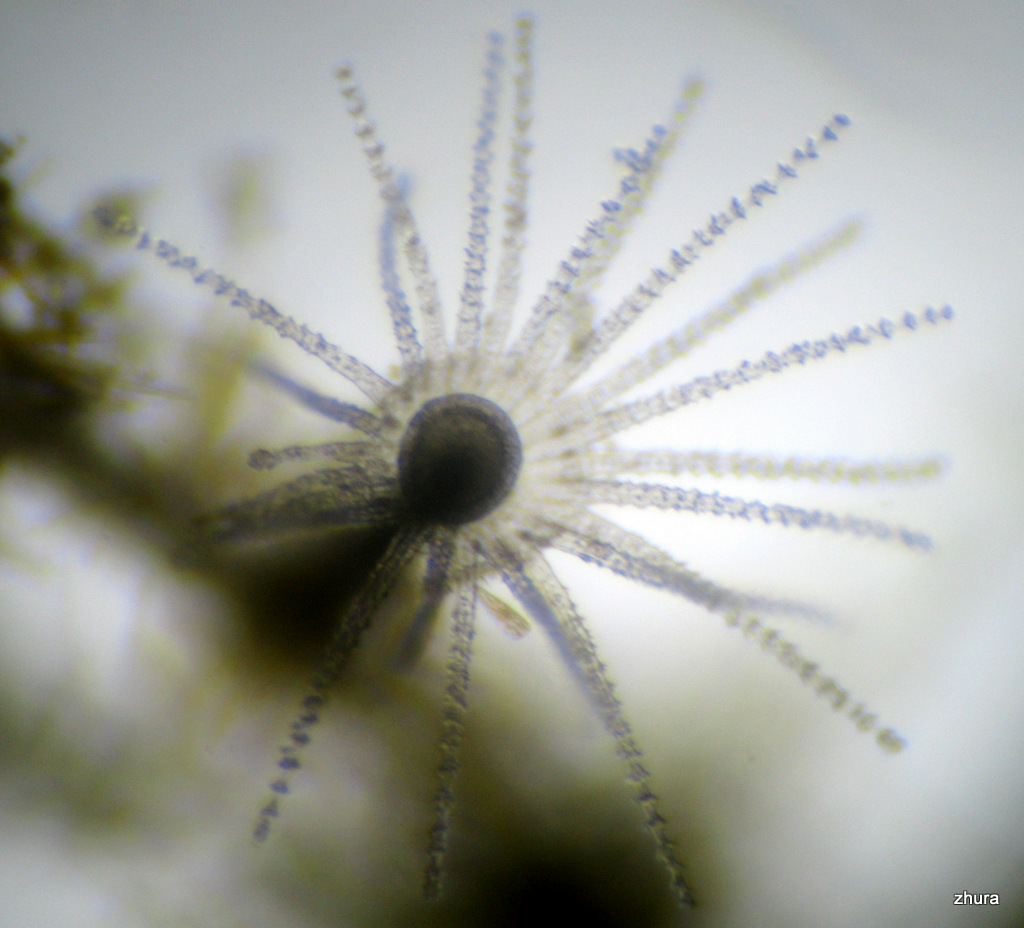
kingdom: Animalia
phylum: Cnidaria
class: Hydrozoa
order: Leptothecata
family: Campanulariidae
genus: Gonothyraea
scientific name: Gonothyraea loveni
